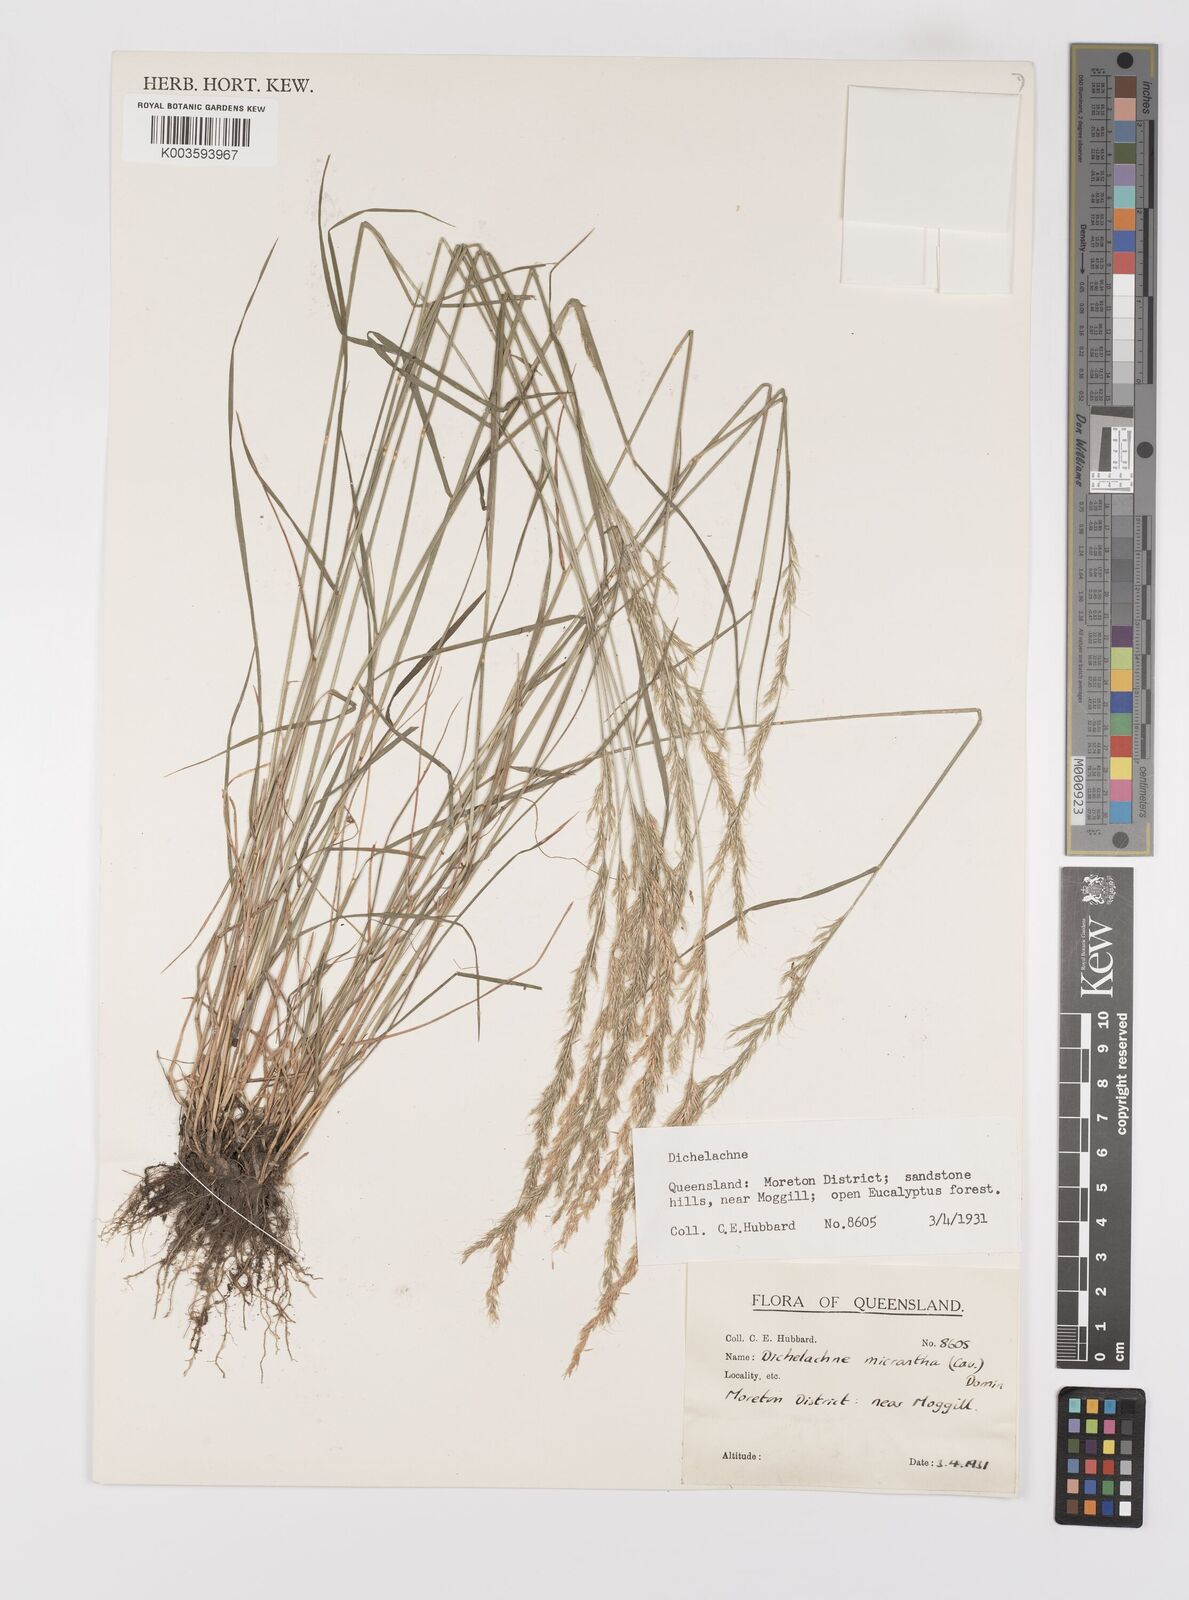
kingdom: Plantae
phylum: Tracheophyta
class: Liliopsida
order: Poales
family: Poaceae
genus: Dichelachne
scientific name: Dichelachne micrantha
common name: Plumegrass
